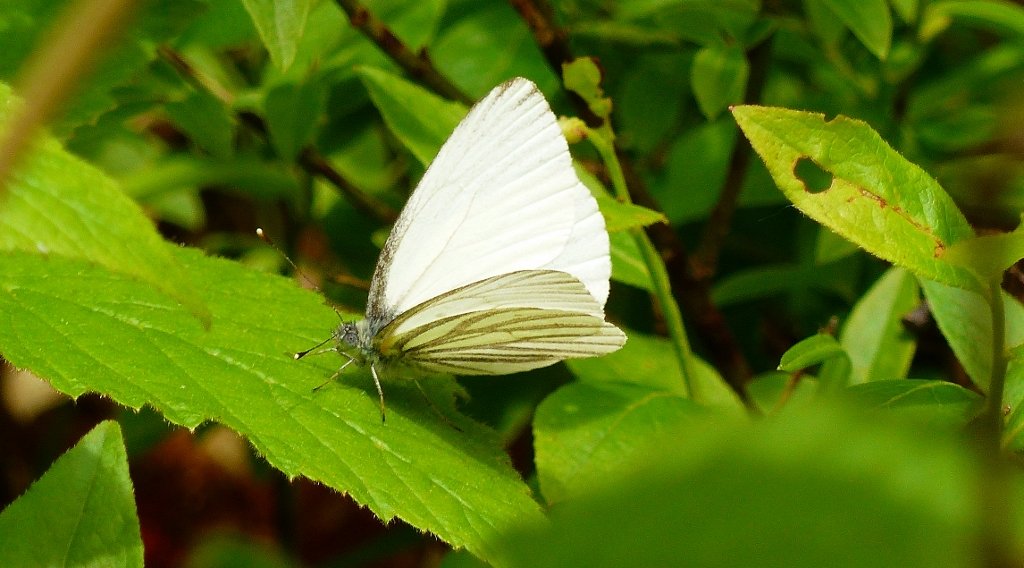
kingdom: Animalia
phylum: Arthropoda
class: Insecta
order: Lepidoptera
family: Pieridae
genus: Pieris
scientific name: Pieris oleracea
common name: Mustard White
